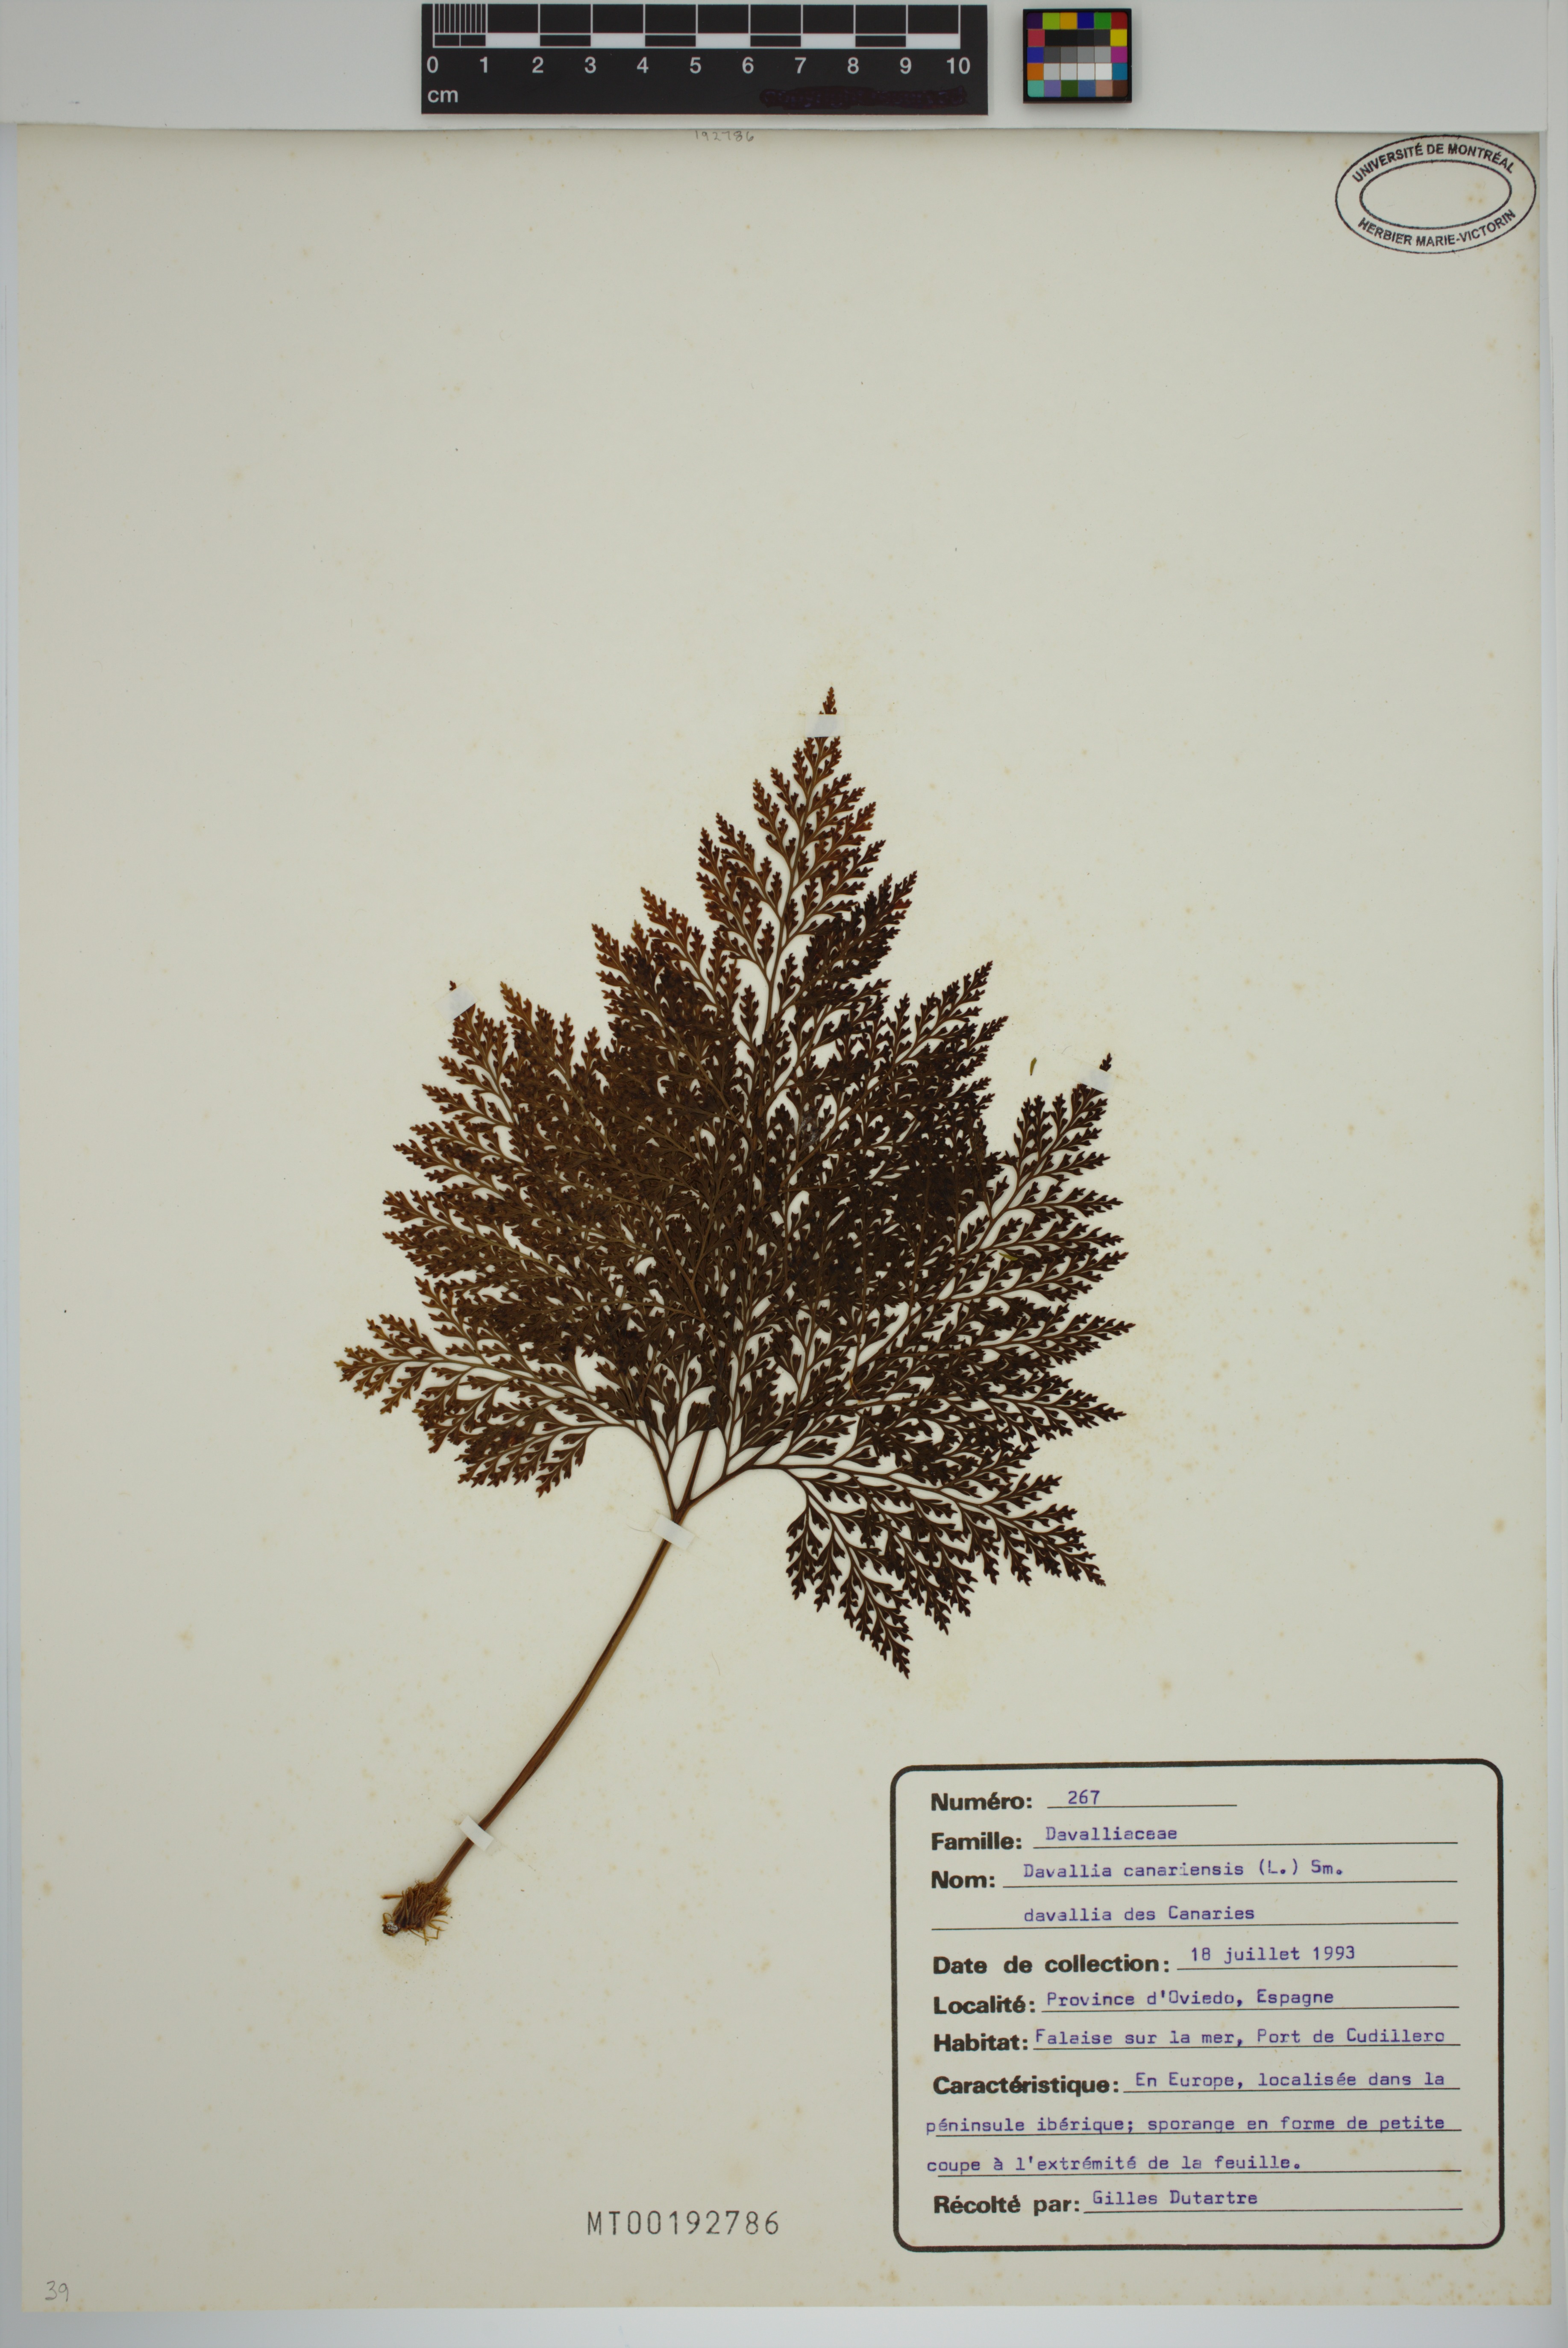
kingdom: Plantae
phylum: Tracheophyta
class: Polypodiopsida
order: Polypodiales
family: Davalliaceae
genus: Davallia
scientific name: Davallia canariensis
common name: Hare's-foot fern
